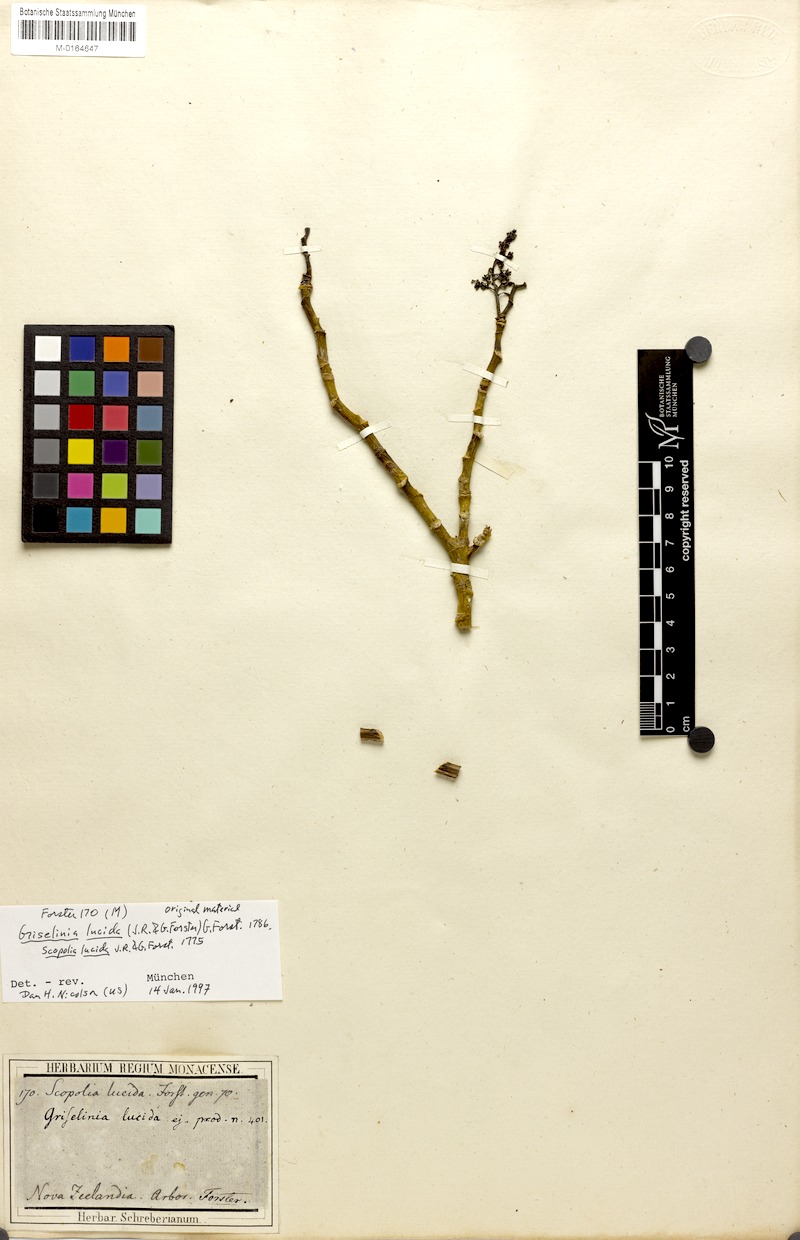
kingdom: Plantae
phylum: Tracheophyta
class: Magnoliopsida
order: Apiales
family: Griseliniaceae
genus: Griselinia
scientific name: Griselinia lucida
